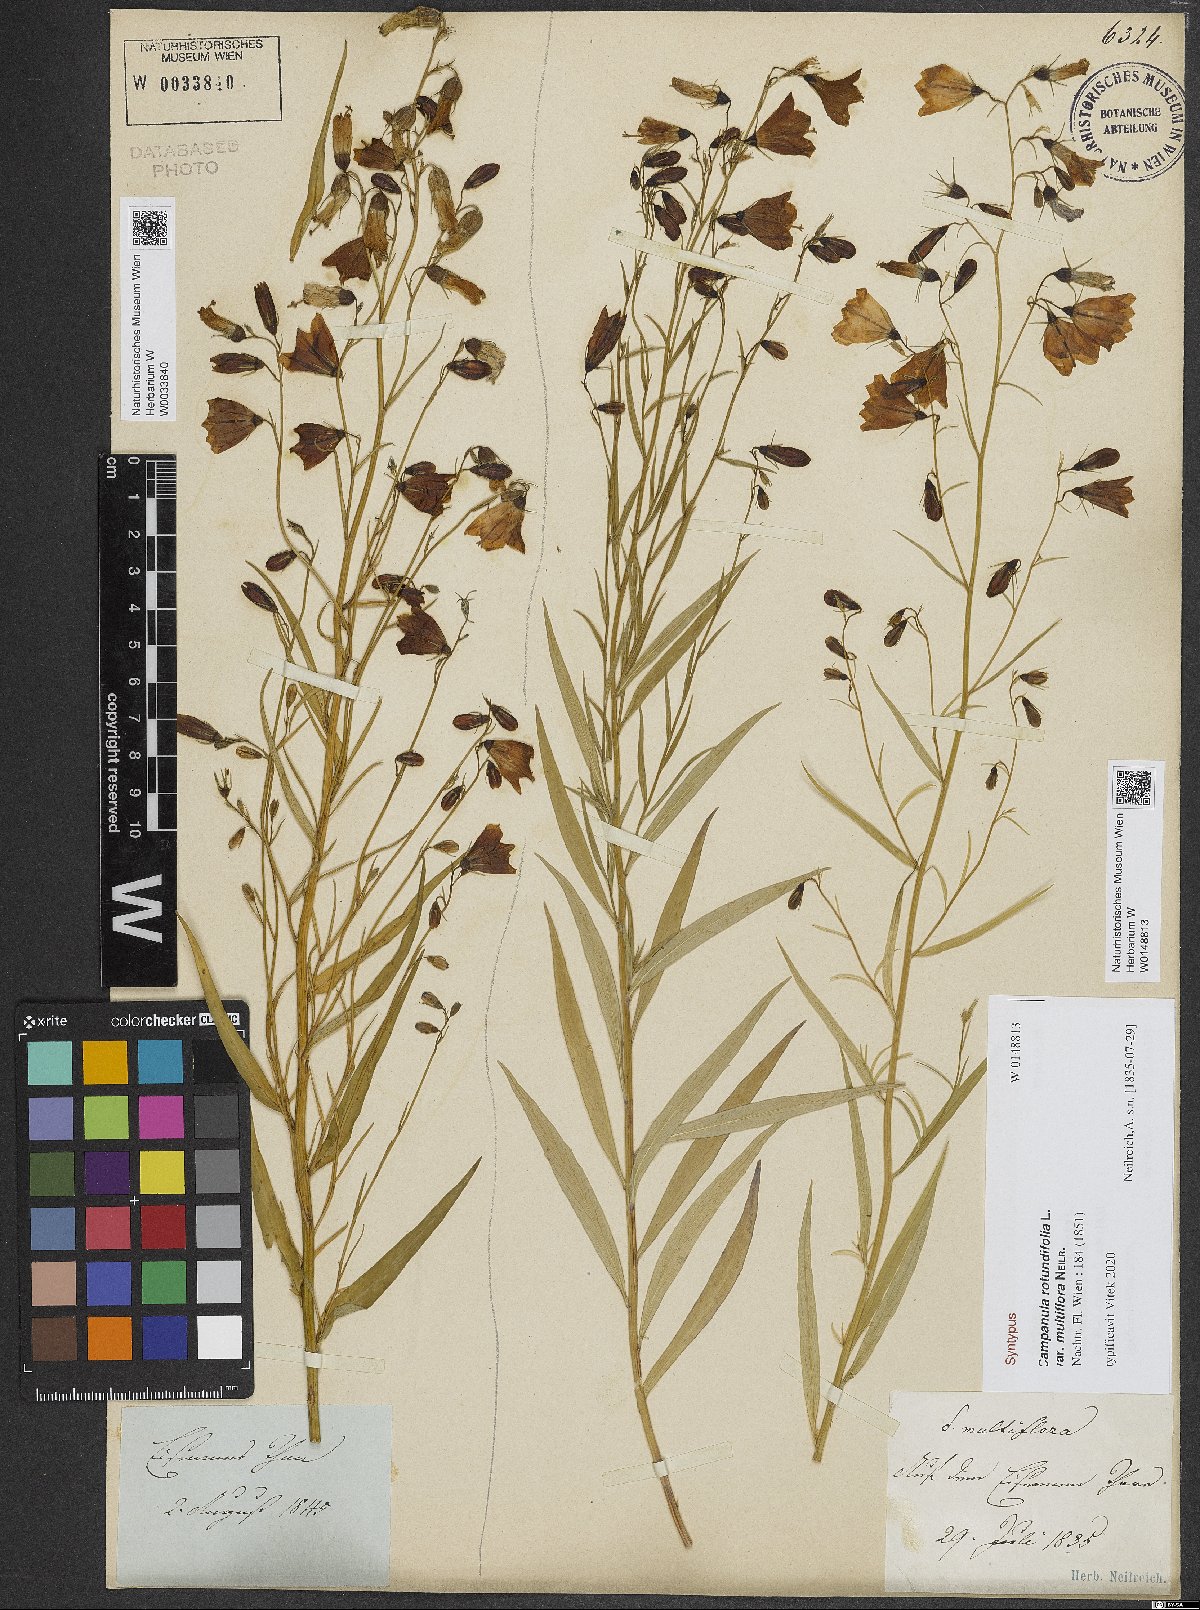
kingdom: Plantae
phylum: Tracheophyta
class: Magnoliopsida
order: Asterales
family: Campanulaceae
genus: Campanula
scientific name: Campanula baumgartenii
